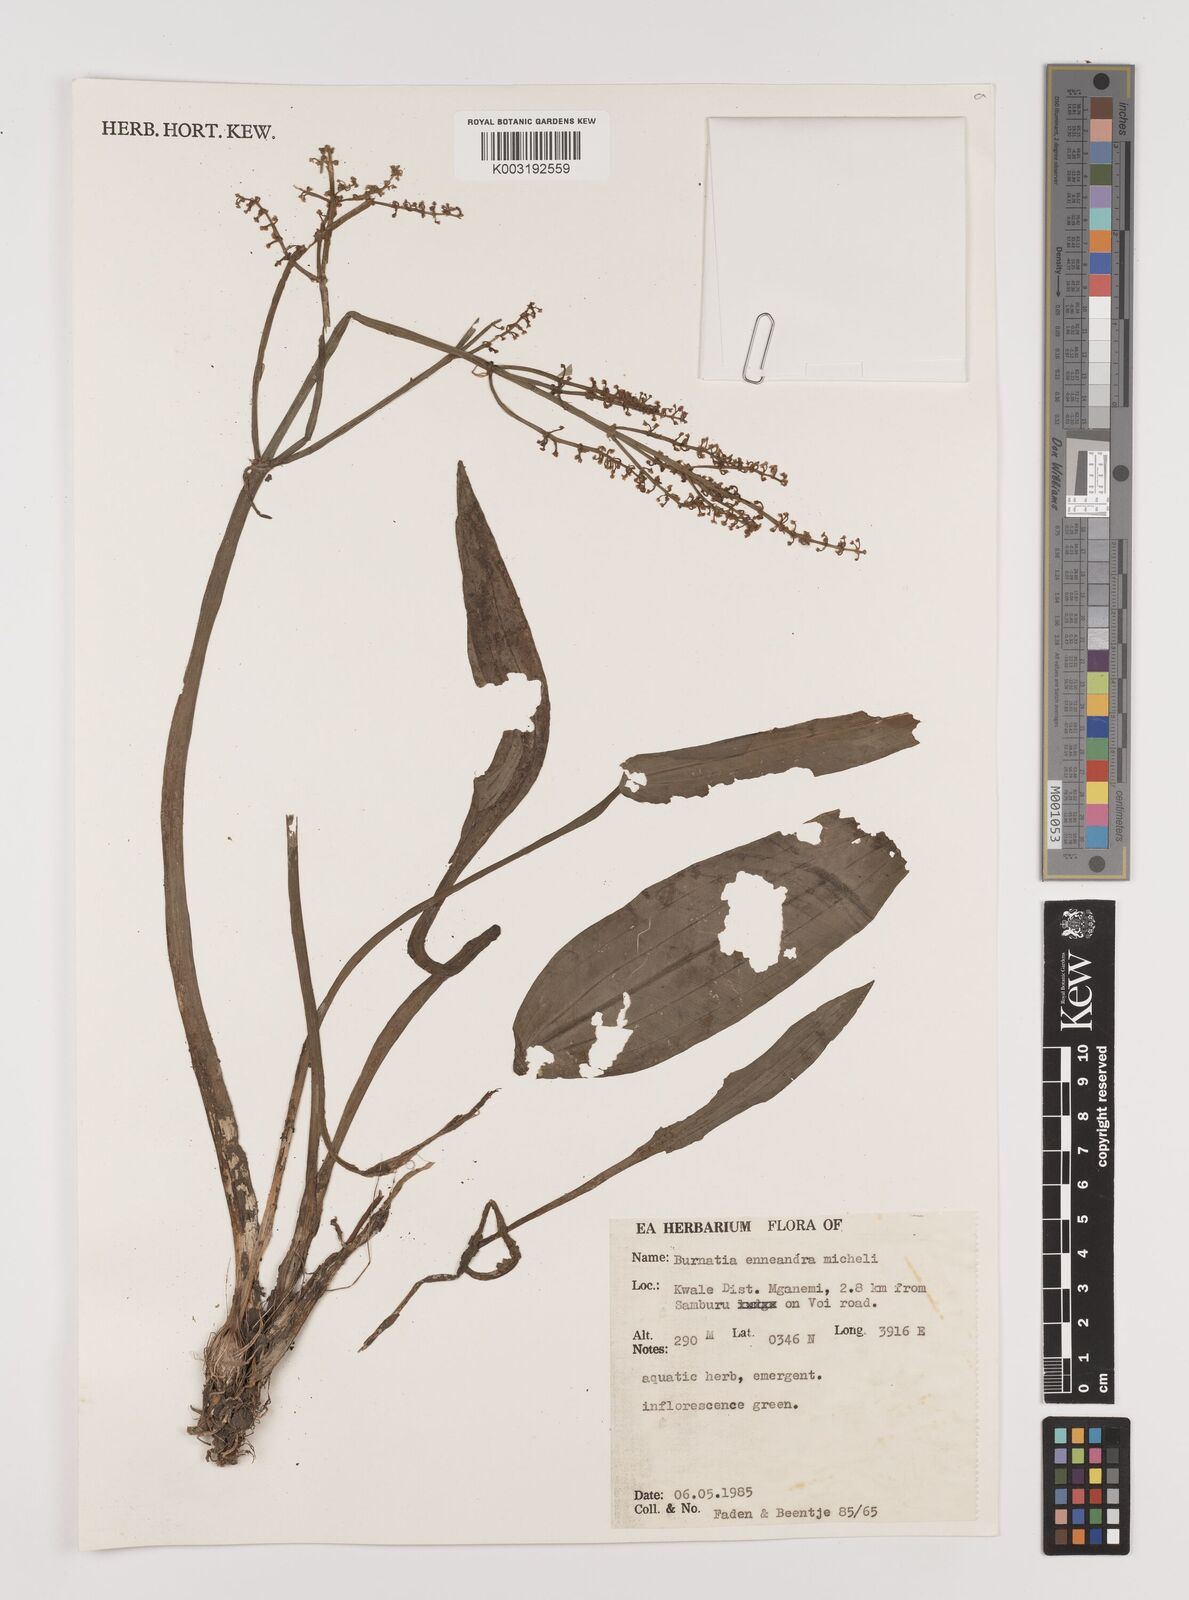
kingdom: Plantae
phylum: Tracheophyta
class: Liliopsida
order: Alismatales
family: Alismataceae
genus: Burnatia
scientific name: Burnatia enneandra
